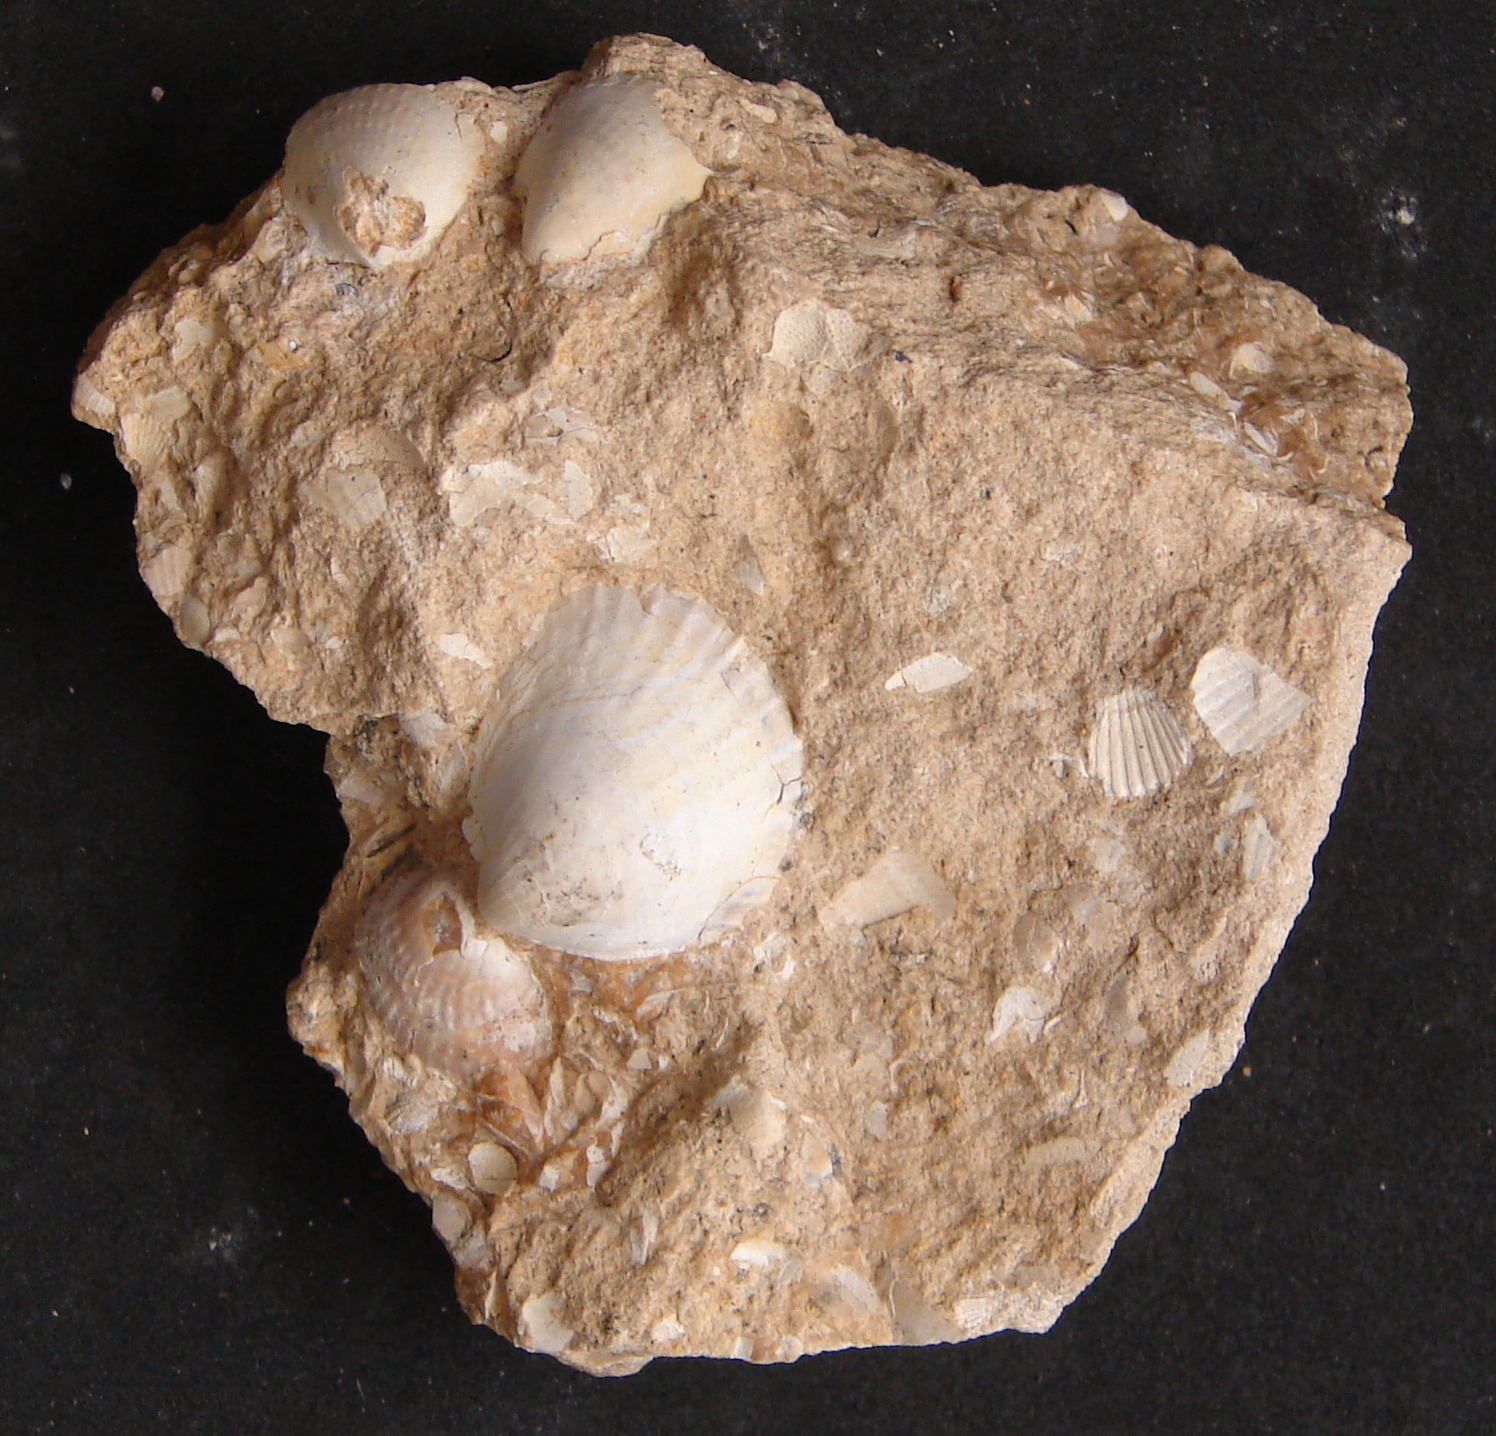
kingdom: Animalia
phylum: Mollusca
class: Bivalvia
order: Pectinida
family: Oxytomidae
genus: Meleagrinella
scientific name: Meleagrinella echinata
